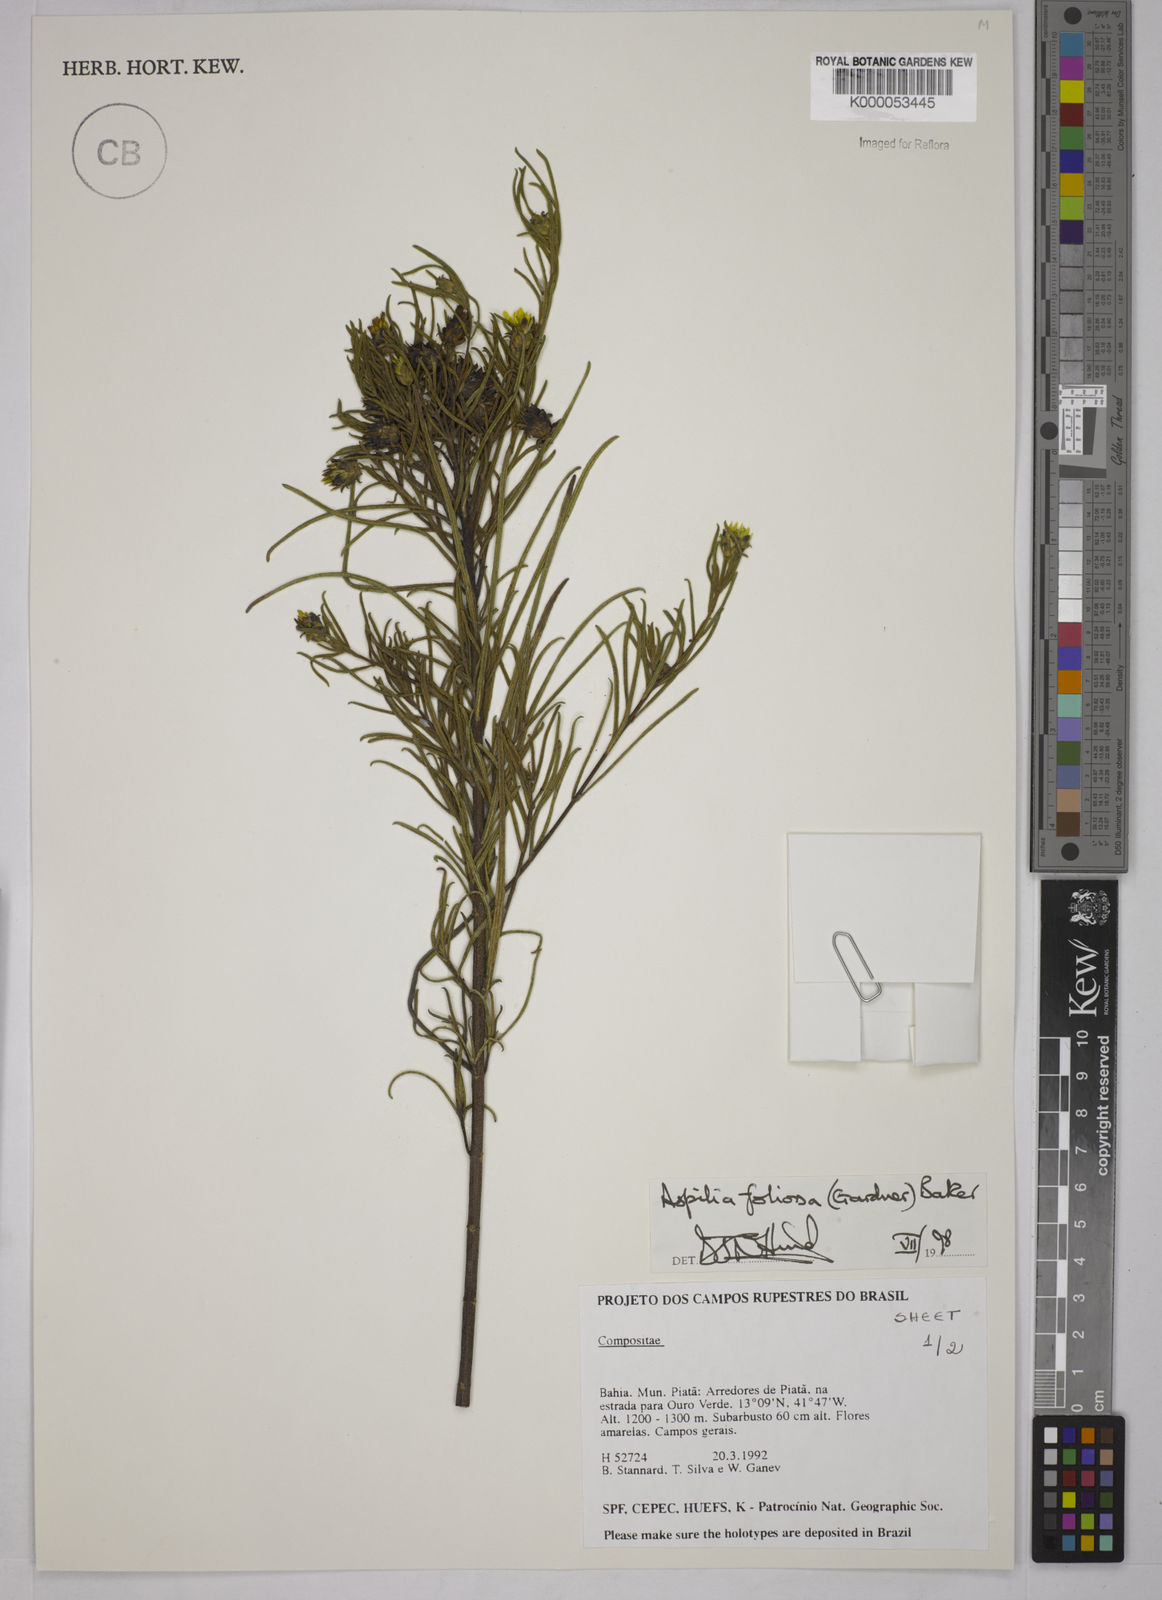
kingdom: Plantae
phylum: Tracheophyta
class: Magnoliopsida
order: Asterales
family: Asteraceae
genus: Aspilia
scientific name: Aspilia
